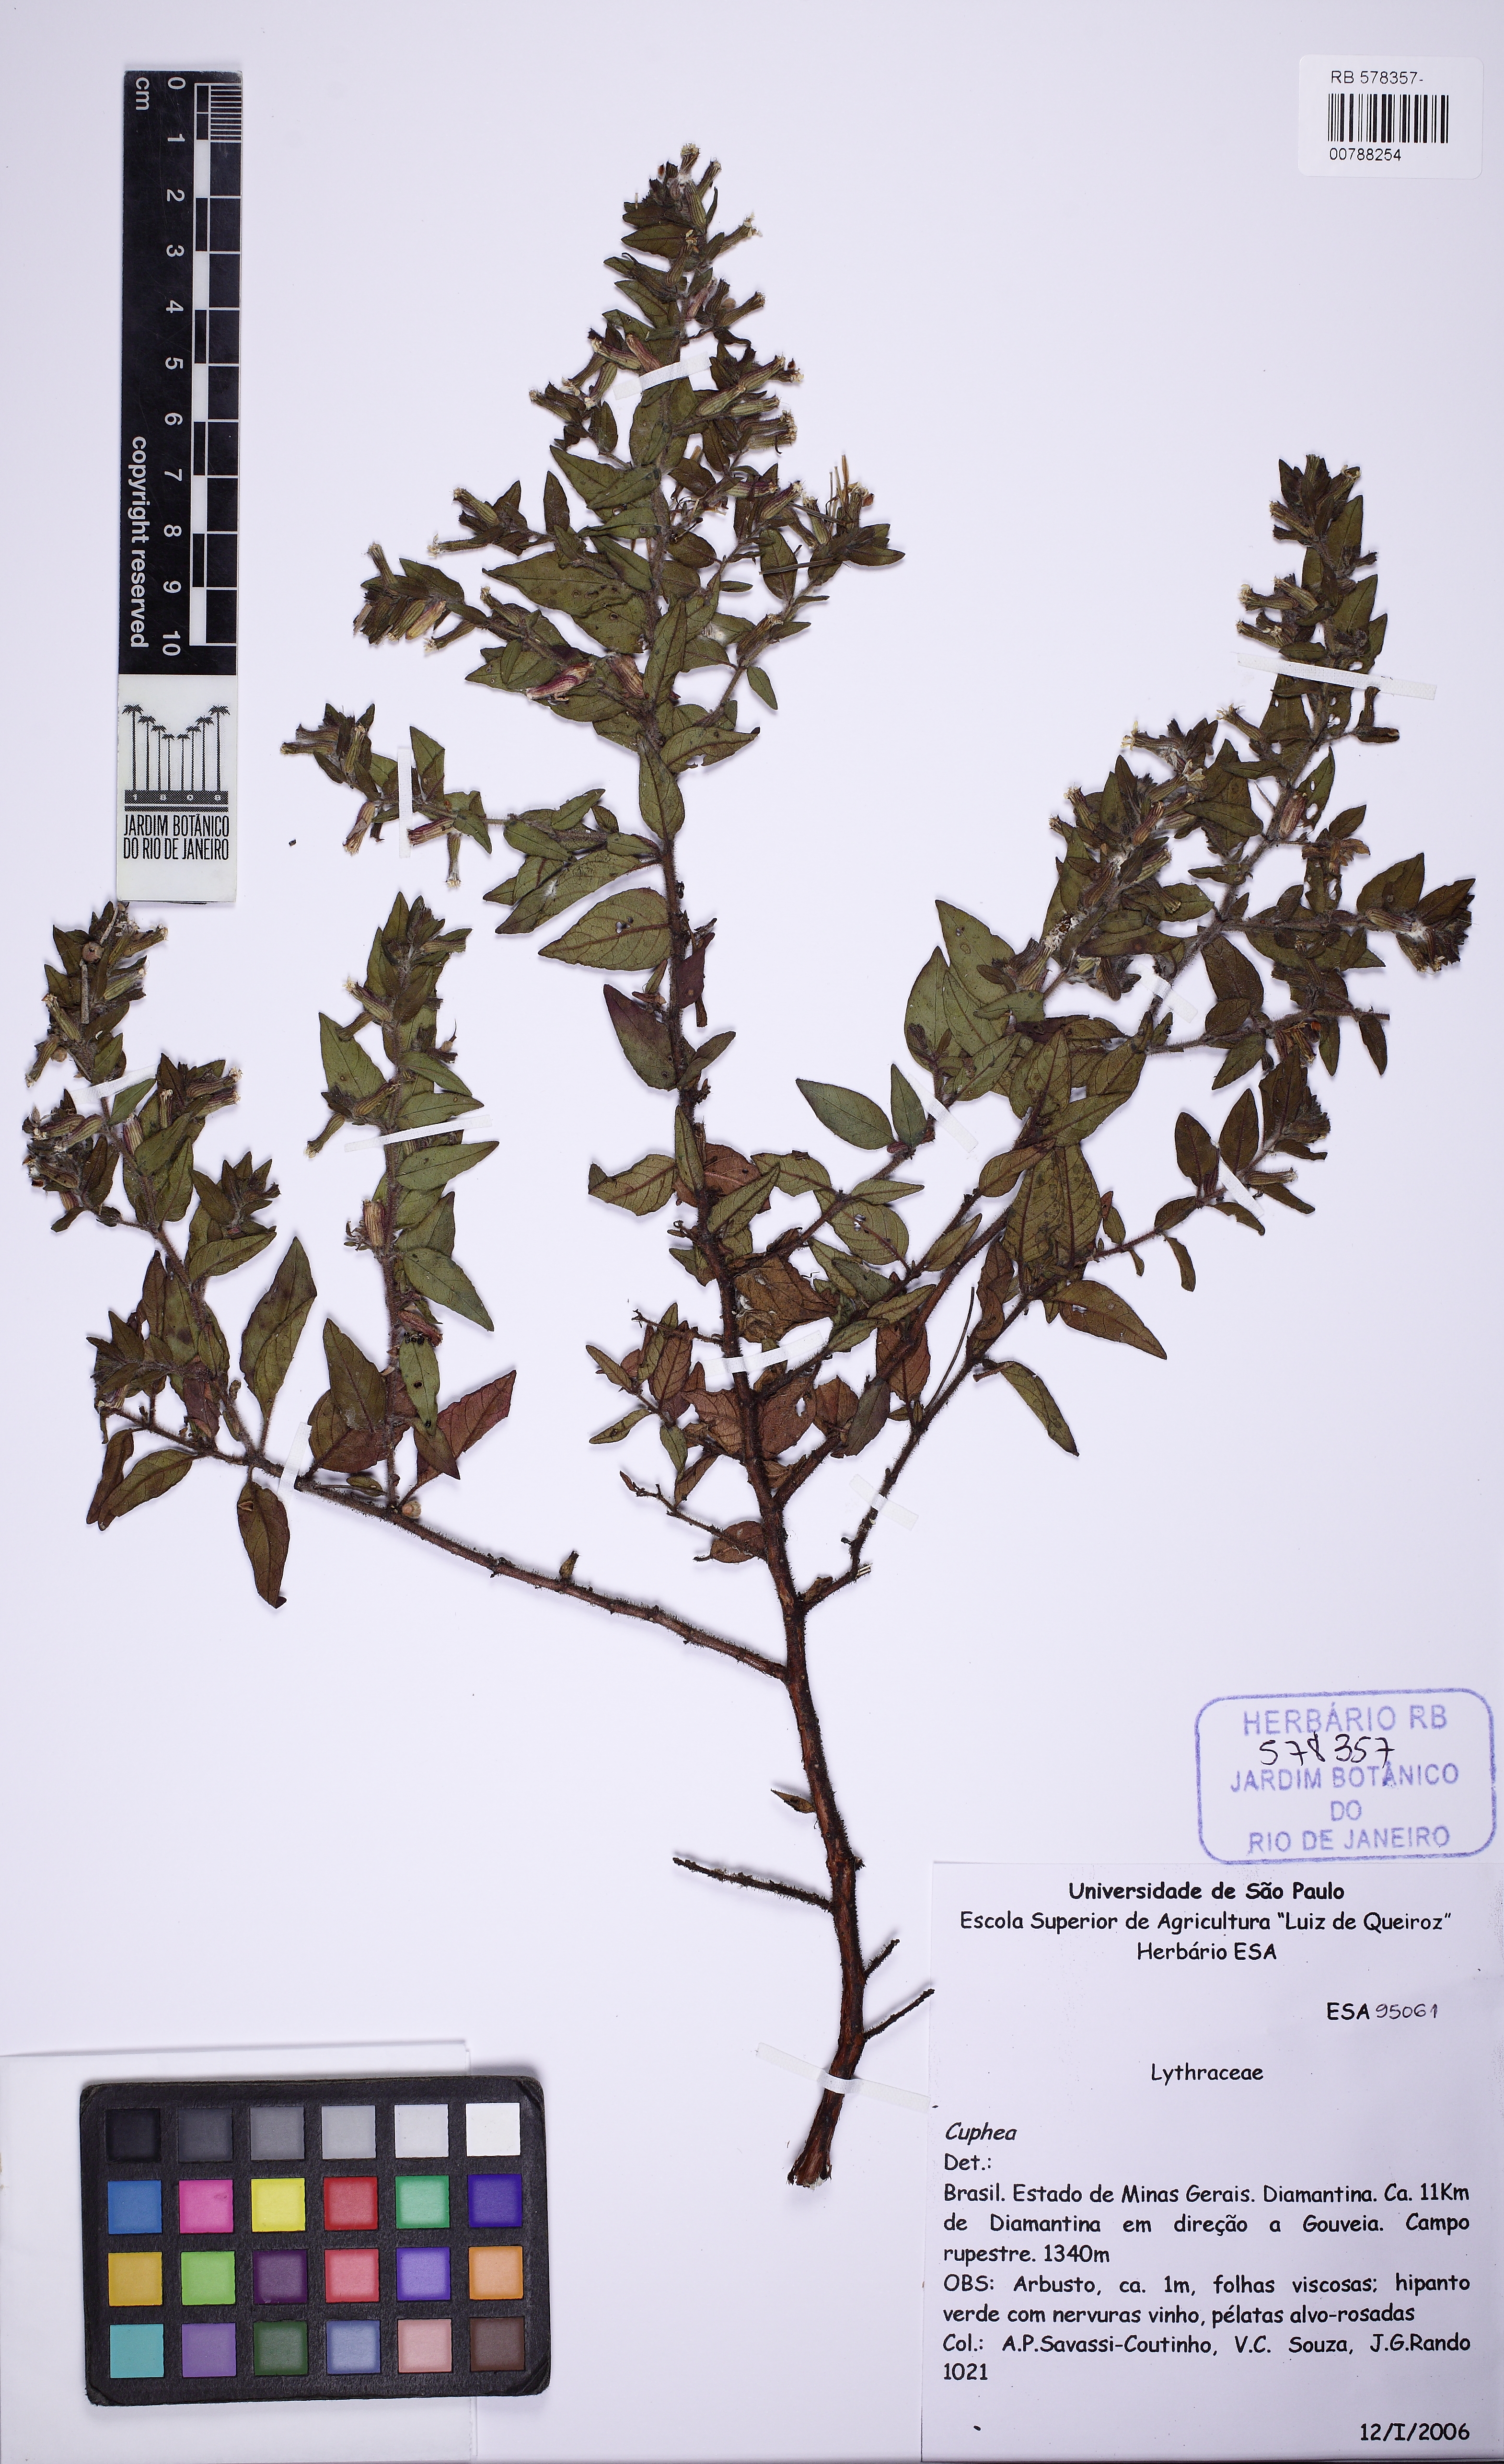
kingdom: Plantae
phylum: Tracheophyta
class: Magnoliopsida
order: Myrtales
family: Lythraceae
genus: Cuphea
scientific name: Cuphea lutescens
